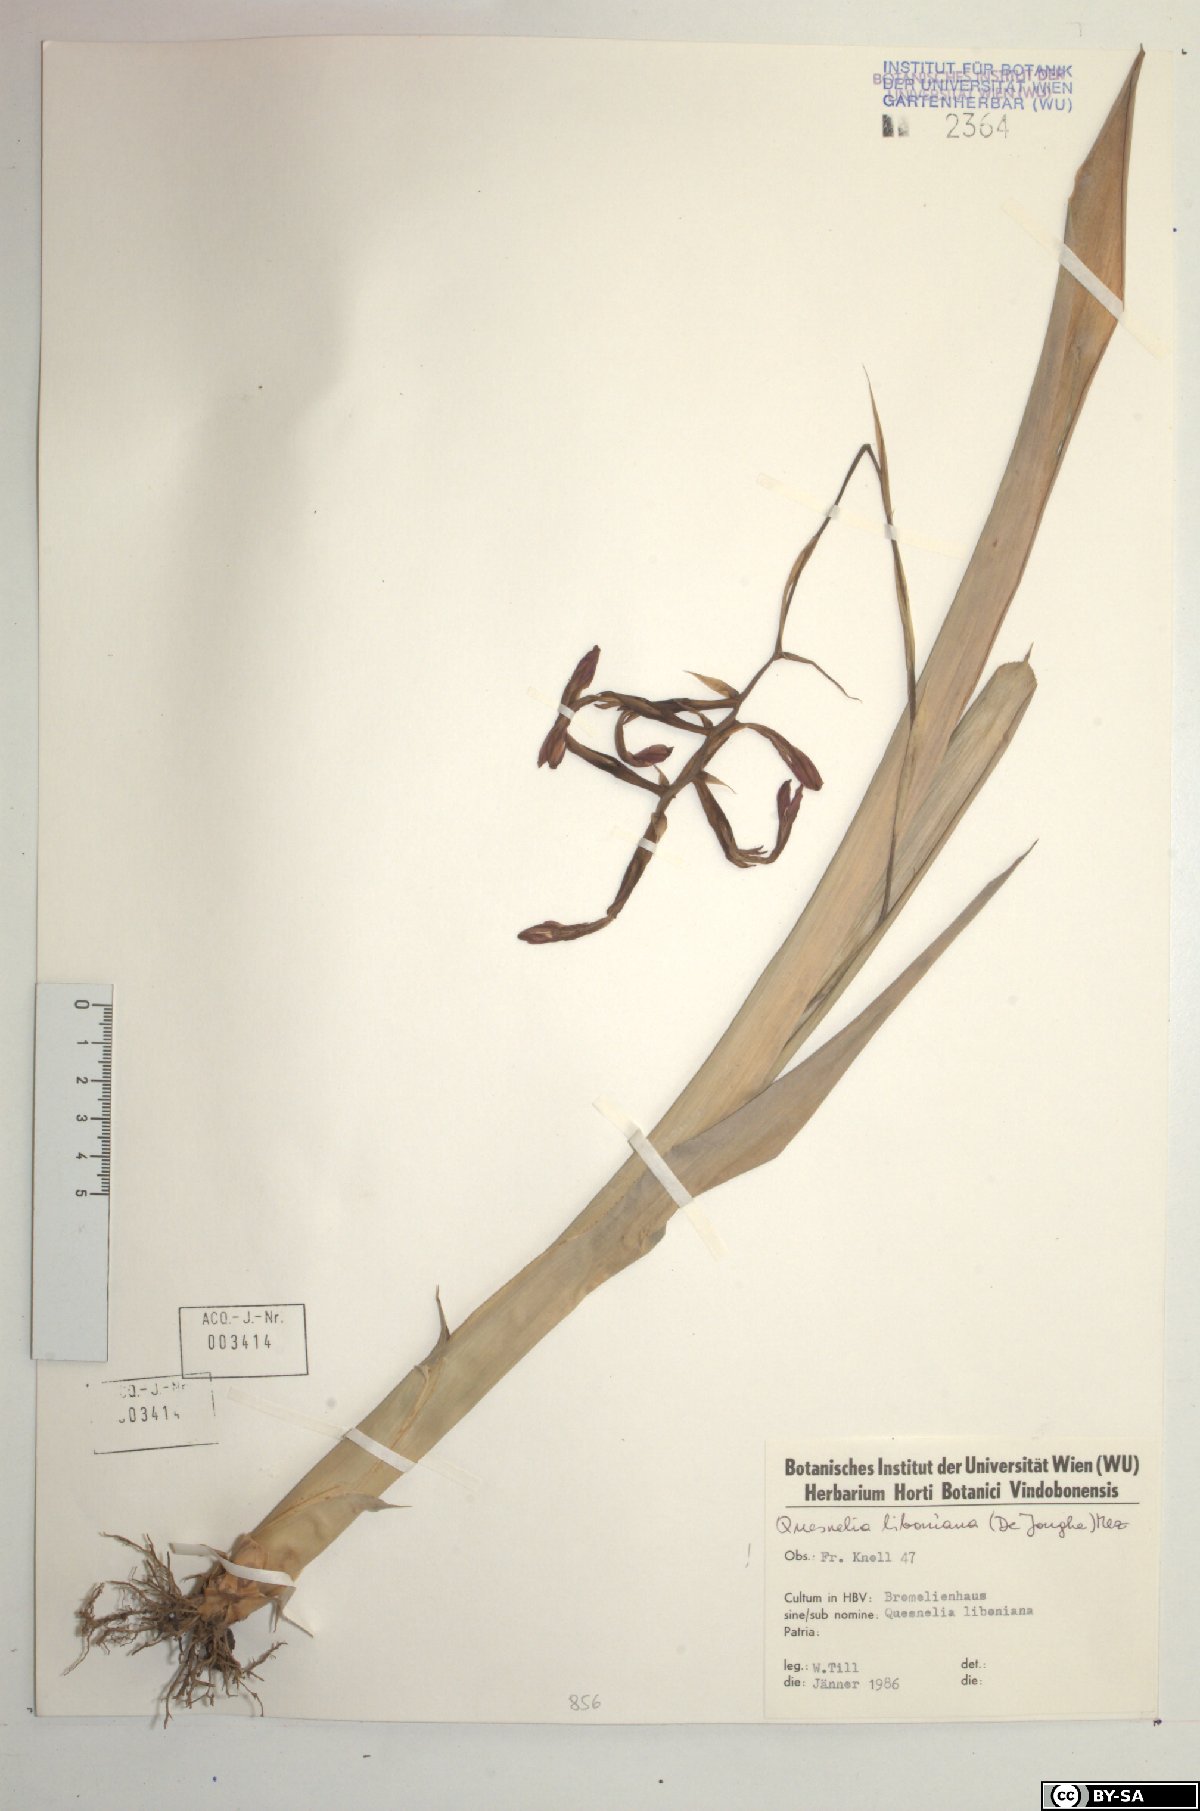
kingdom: Plantae
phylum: Tracheophyta
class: Liliopsida
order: Poales
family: Bromeliaceae
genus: Quesnelia
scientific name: Quesnelia liboniana
